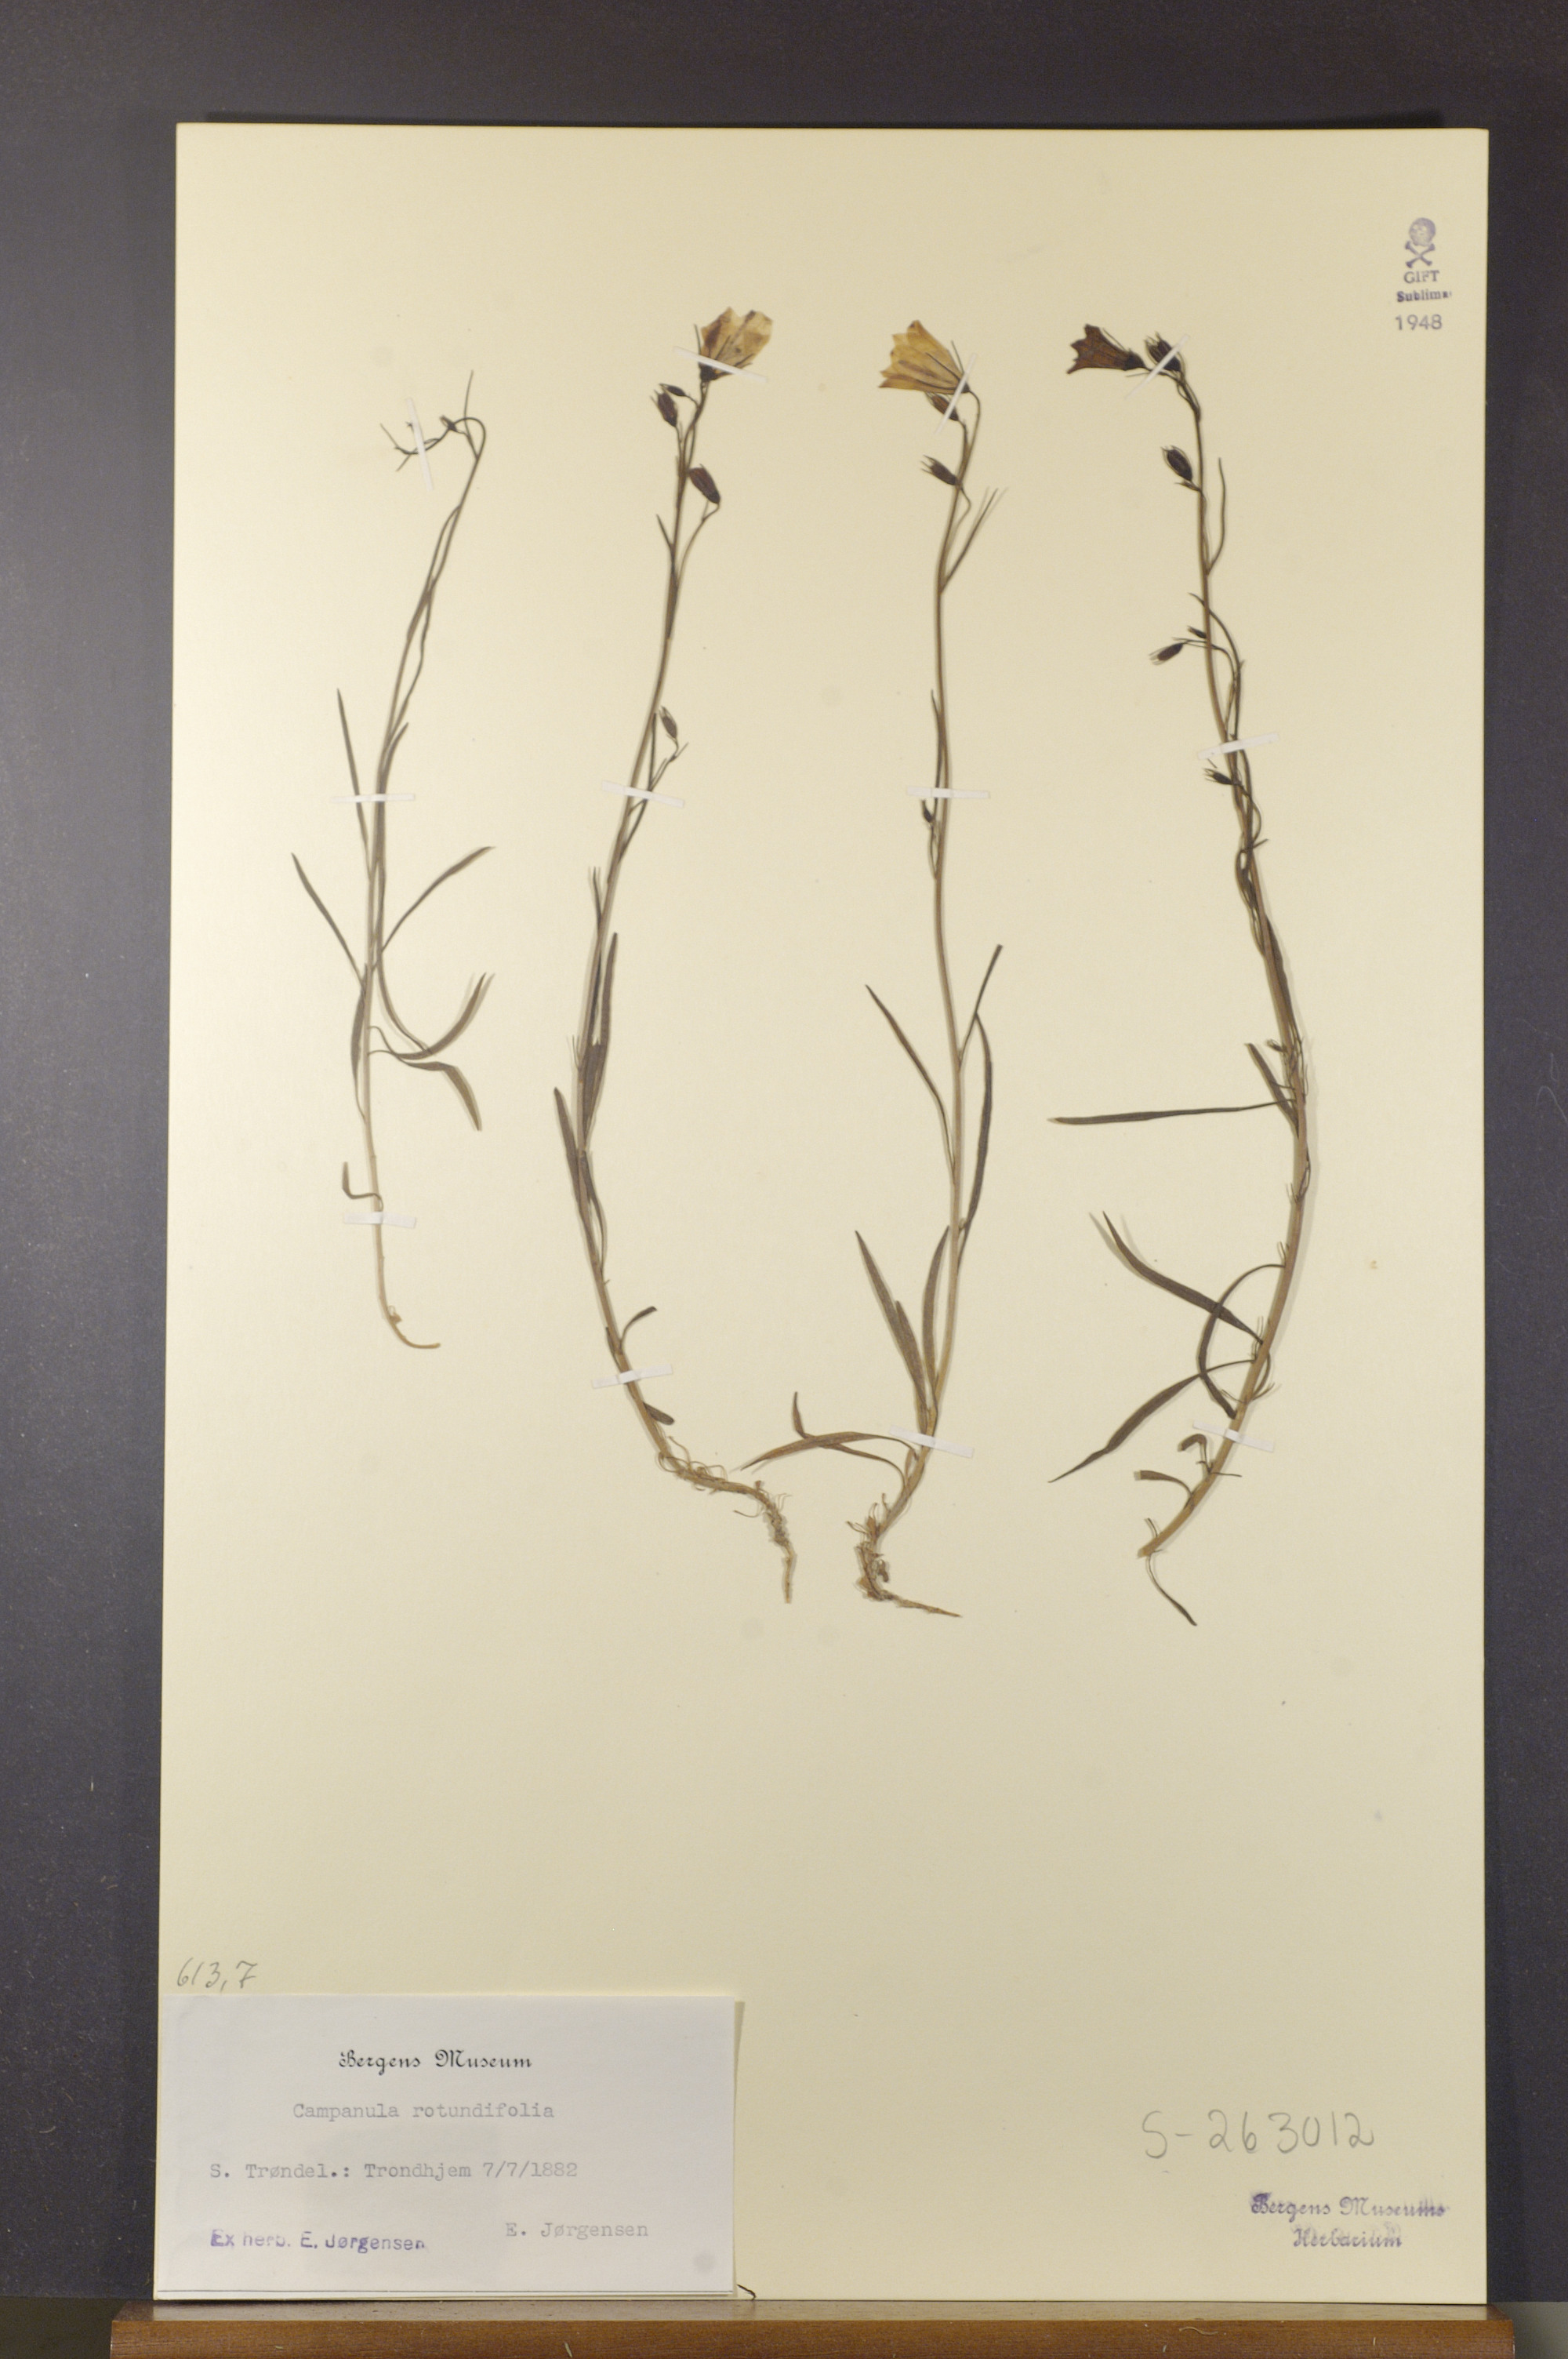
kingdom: Plantae
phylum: Tracheophyta
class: Magnoliopsida
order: Asterales
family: Campanulaceae
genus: Campanula
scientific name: Campanula rotundifolia
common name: Harebell
